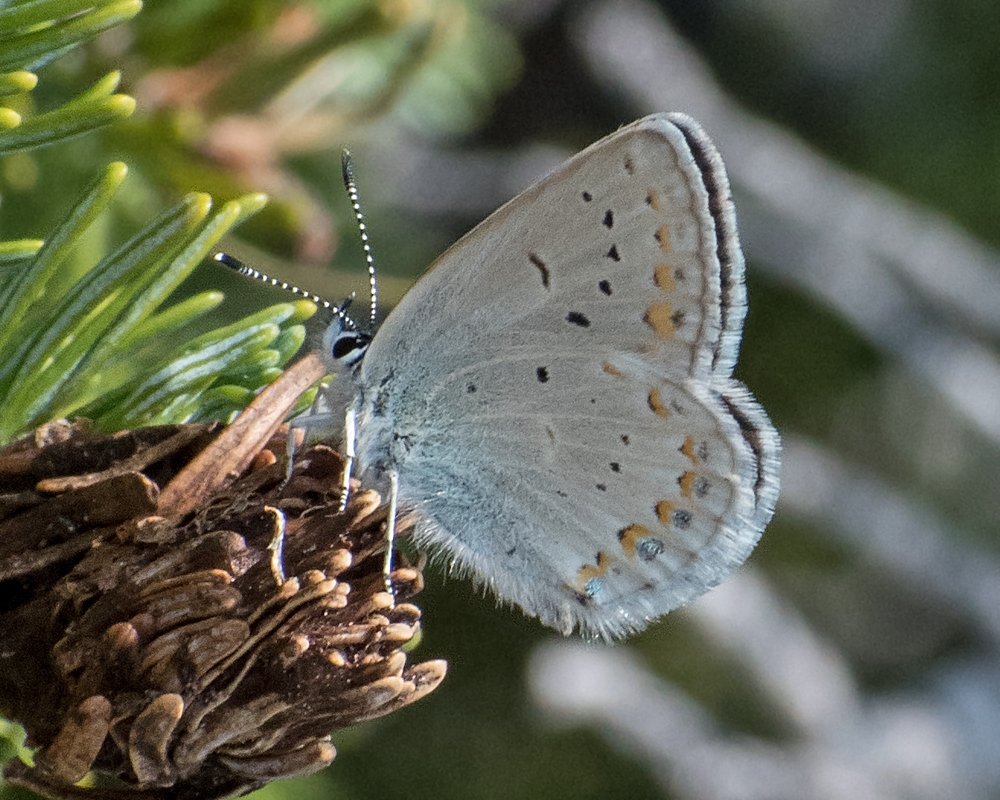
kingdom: Animalia
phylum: Arthropoda
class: Insecta
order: Lepidoptera
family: Lycaenidae
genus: Lycaeides
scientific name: Lycaeides anna
